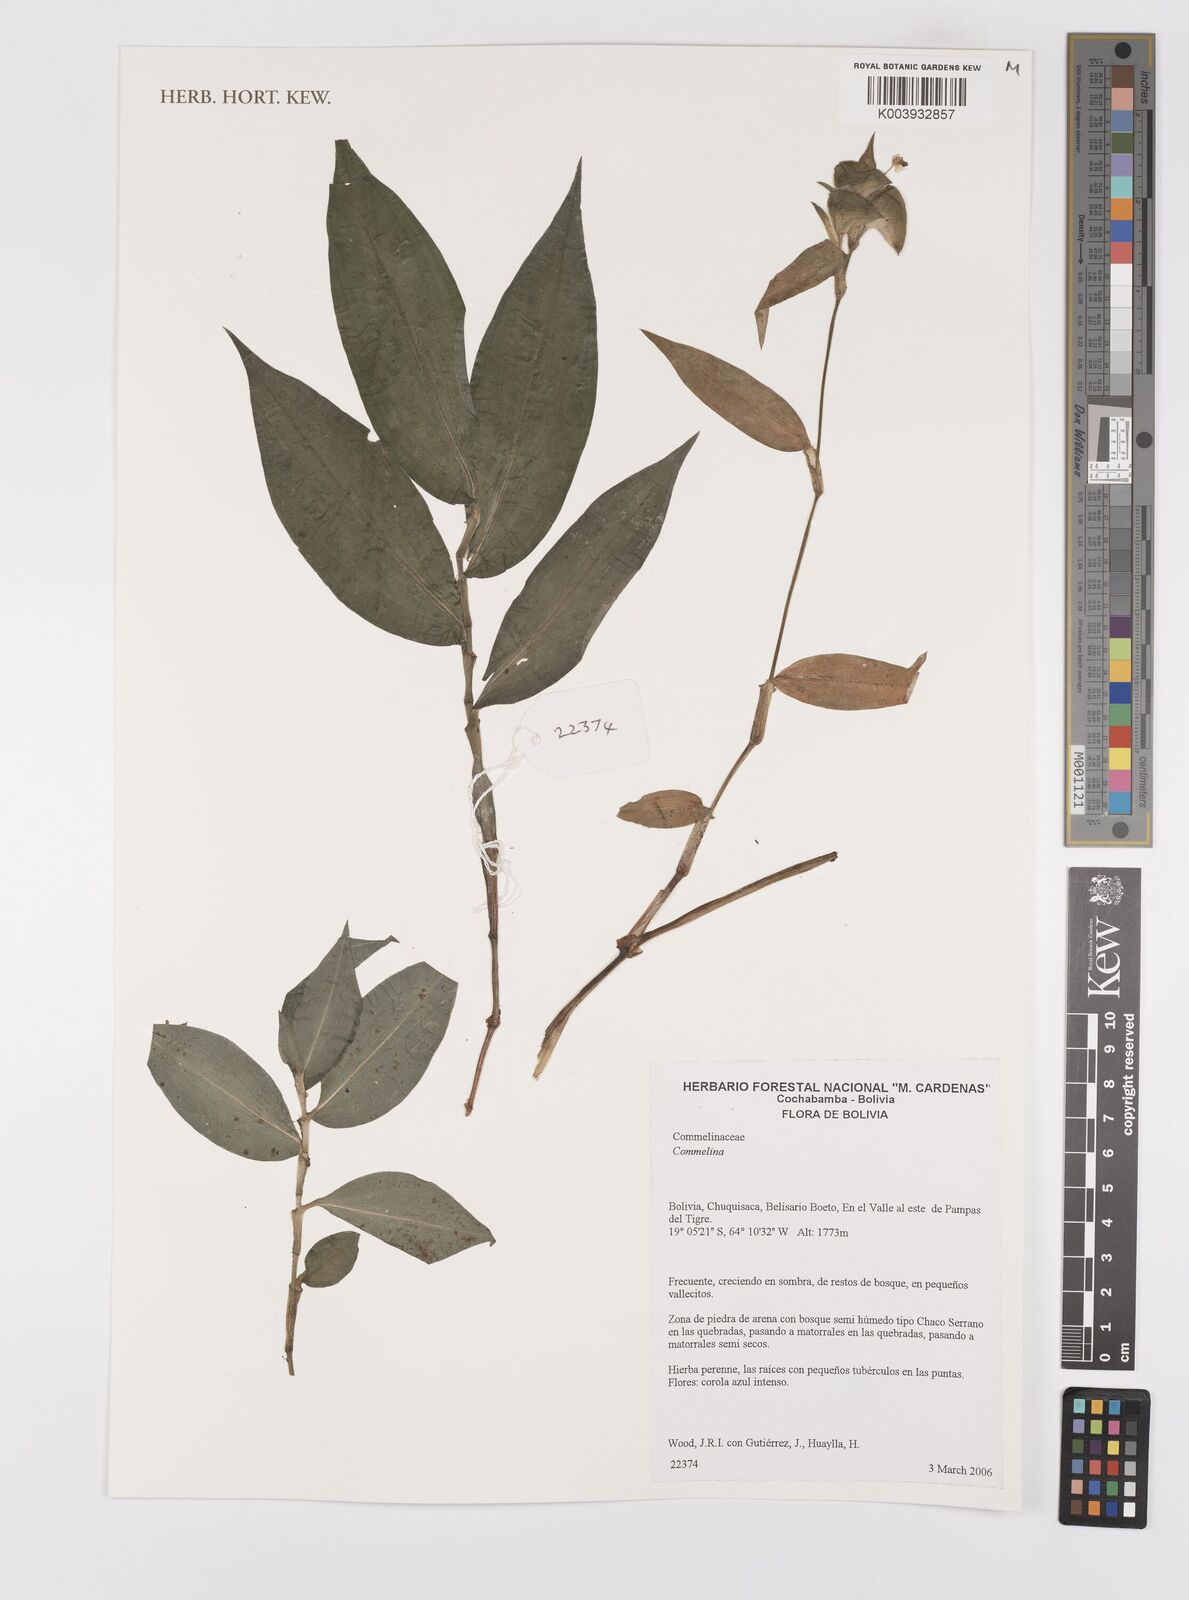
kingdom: Plantae
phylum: Tracheophyta
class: Liliopsida
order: Commelinales
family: Commelinaceae
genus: Commelina
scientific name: Commelina
